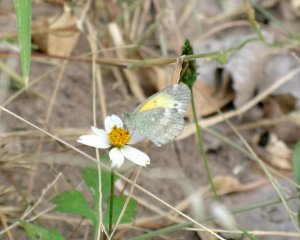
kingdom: Animalia
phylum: Arthropoda
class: Insecta
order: Lepidoptera
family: Pieridae
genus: Nathalis
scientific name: Nathalis iole
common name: Dainty Sulphur
